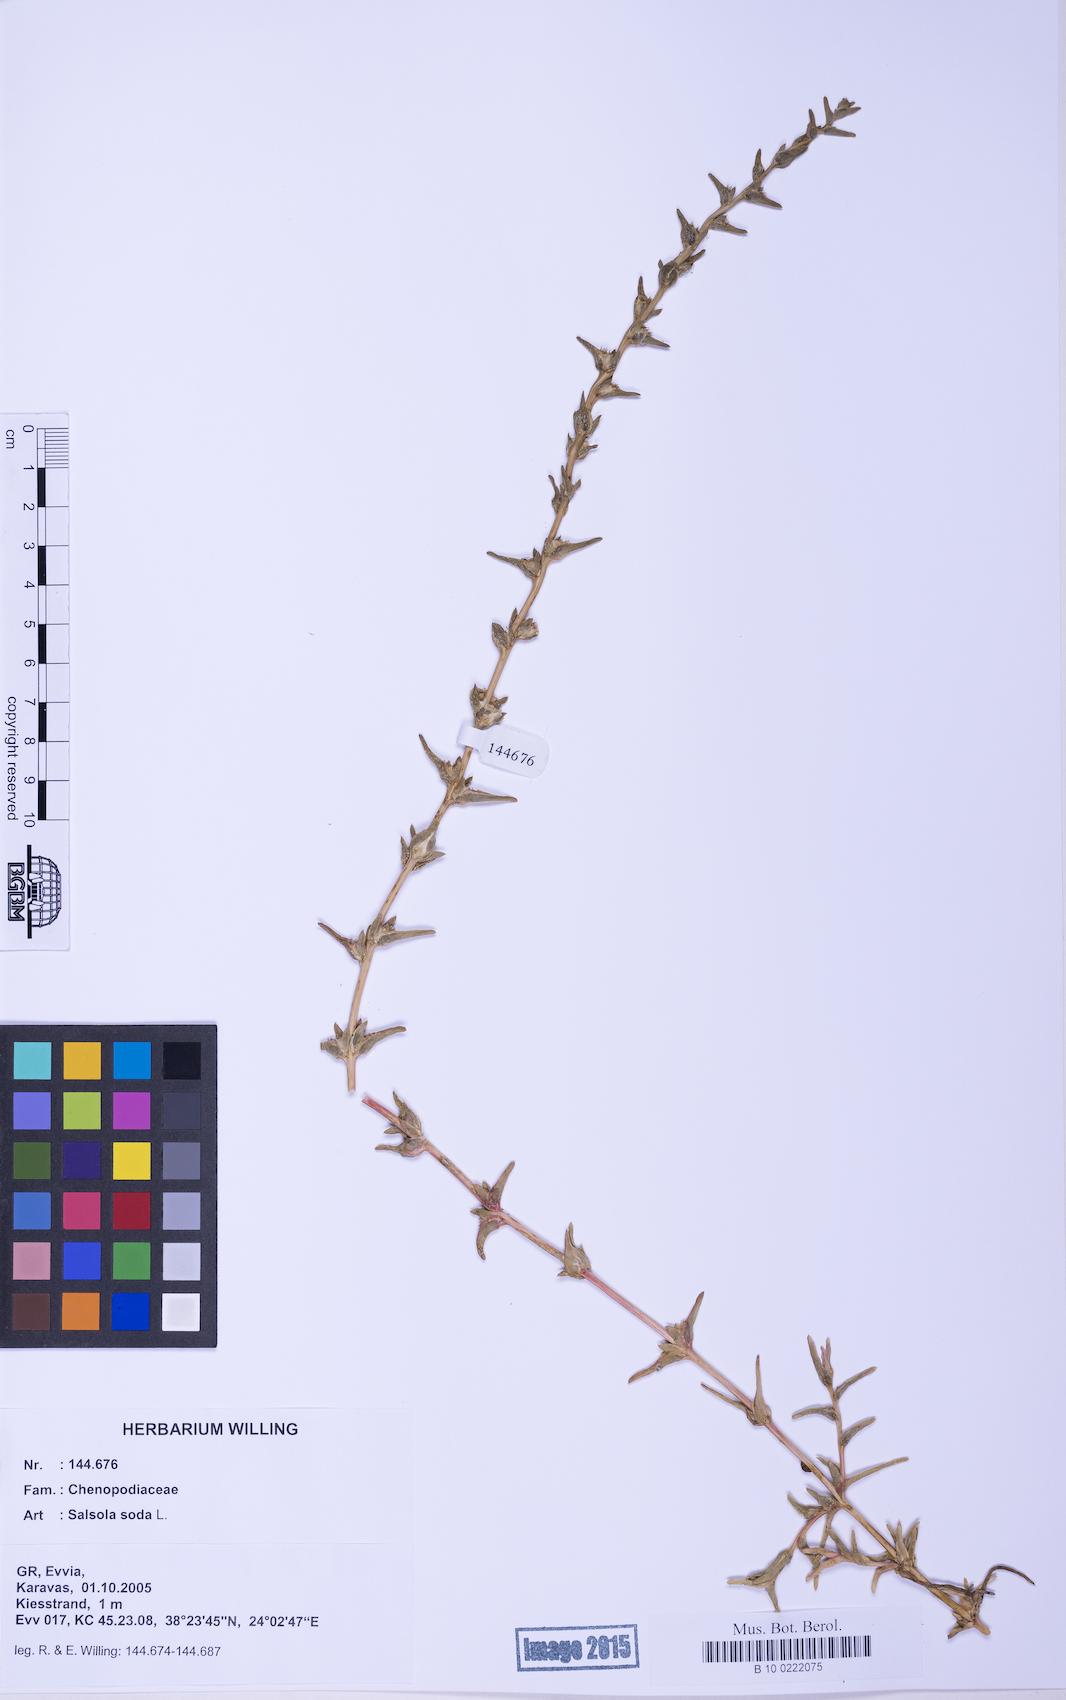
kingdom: Plantae
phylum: Tracheophyta
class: Magnoliopsida
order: Caryophyllales
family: Amaranthaceae
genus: Soda
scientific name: Soda inermis
